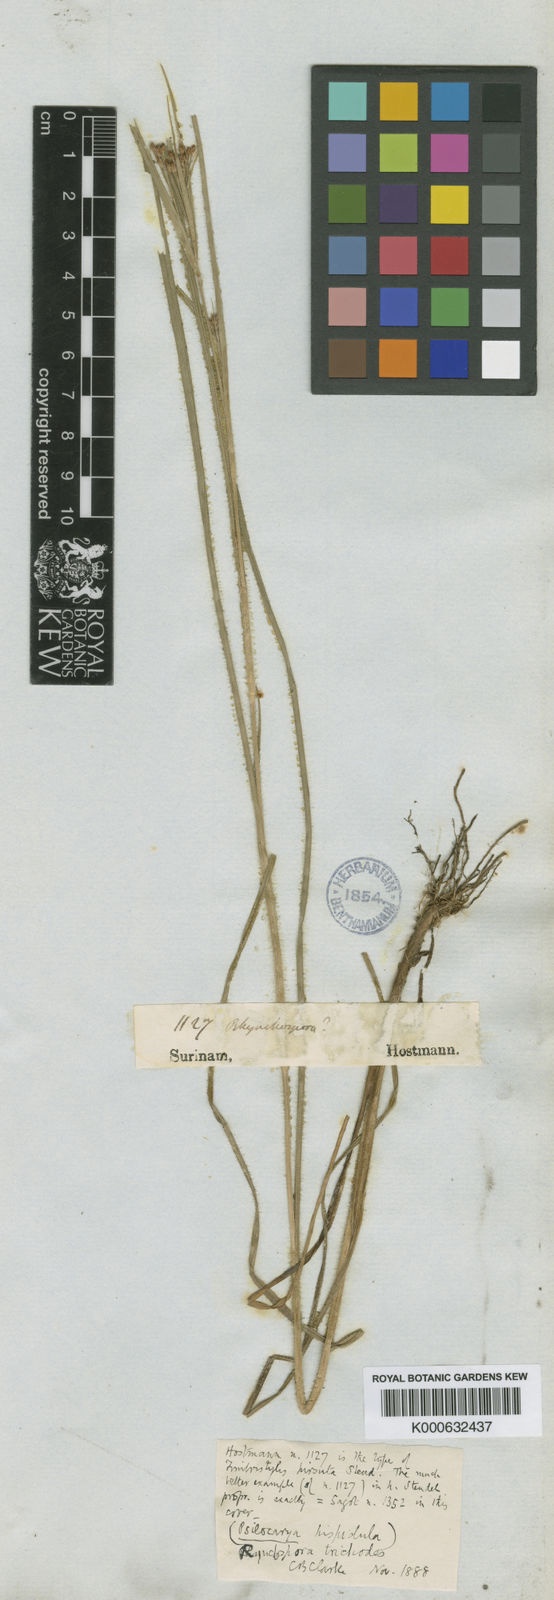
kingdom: Plantae
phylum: Tracheophyta
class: Liliopsida
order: Poales
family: Cyperaceae
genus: Rhynchospora
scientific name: Rhynchospora divaricata
